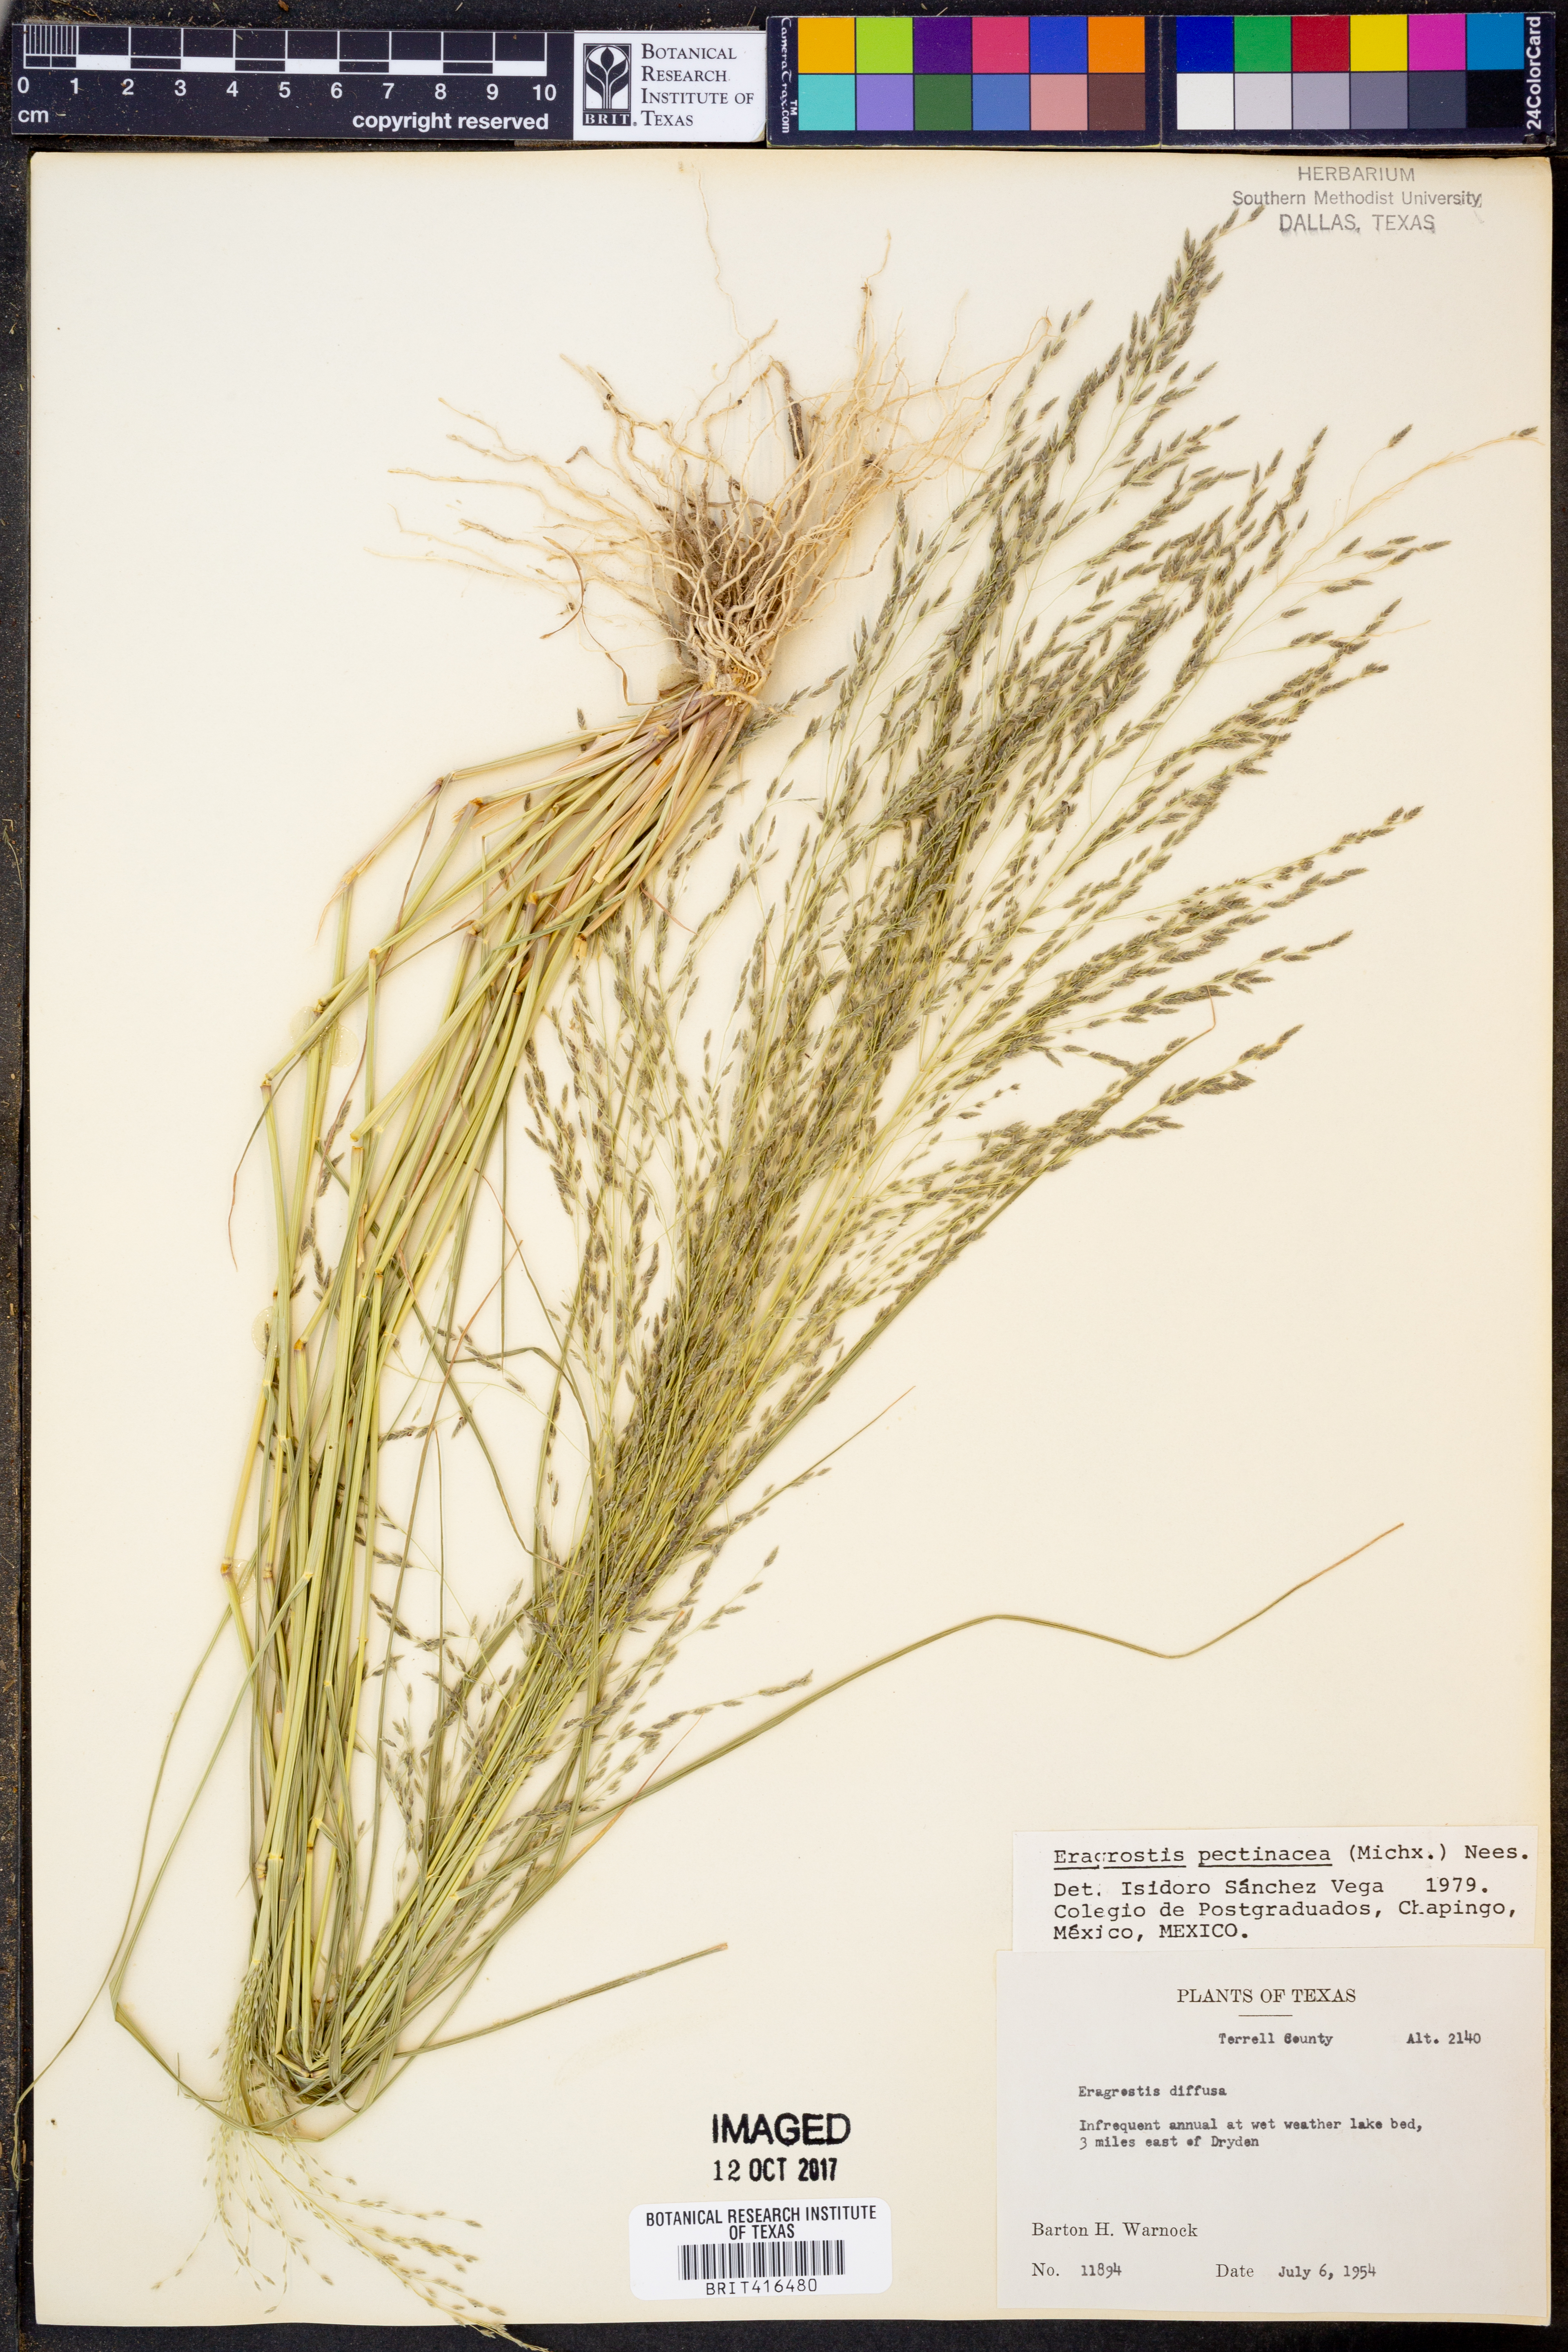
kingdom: Plantae
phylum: Tracheophyta
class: Liliopsida
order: Poales
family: Poaceae
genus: Eragrostis
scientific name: Eragrostis pectinacea
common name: Tufted lovegrass
